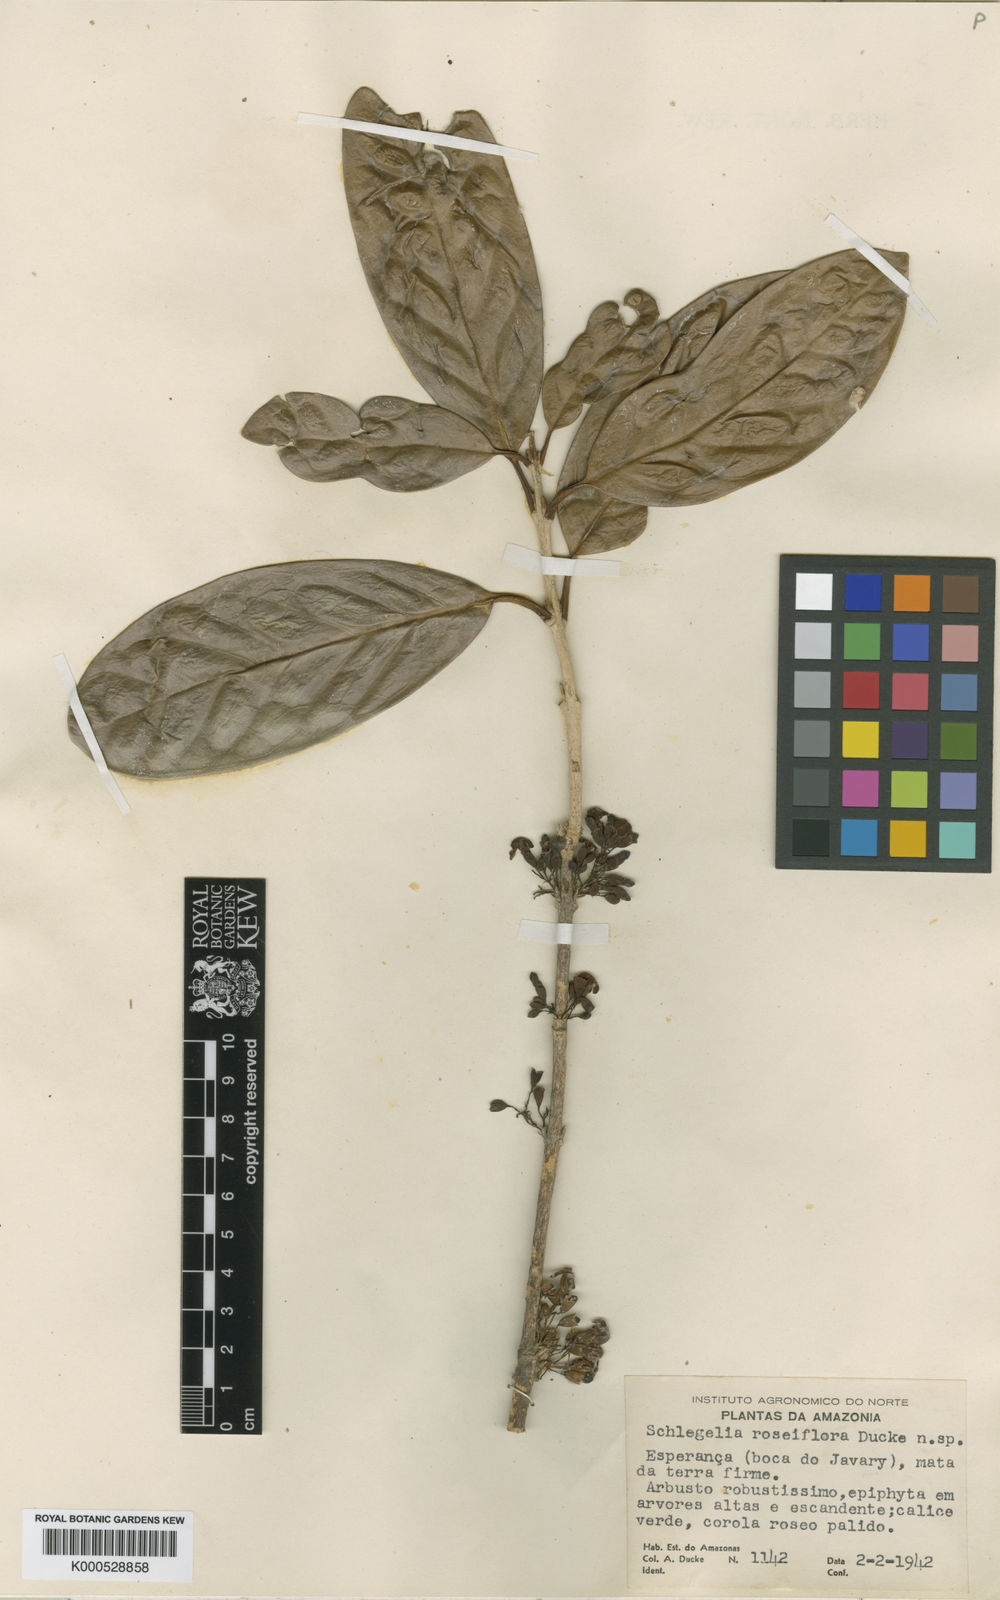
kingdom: Plantae
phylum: Tracheophyta
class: Magnoliopsida
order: Lamiales
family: Schlegeliaceae
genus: Schlegelia
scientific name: Schlegelia roseiflora
